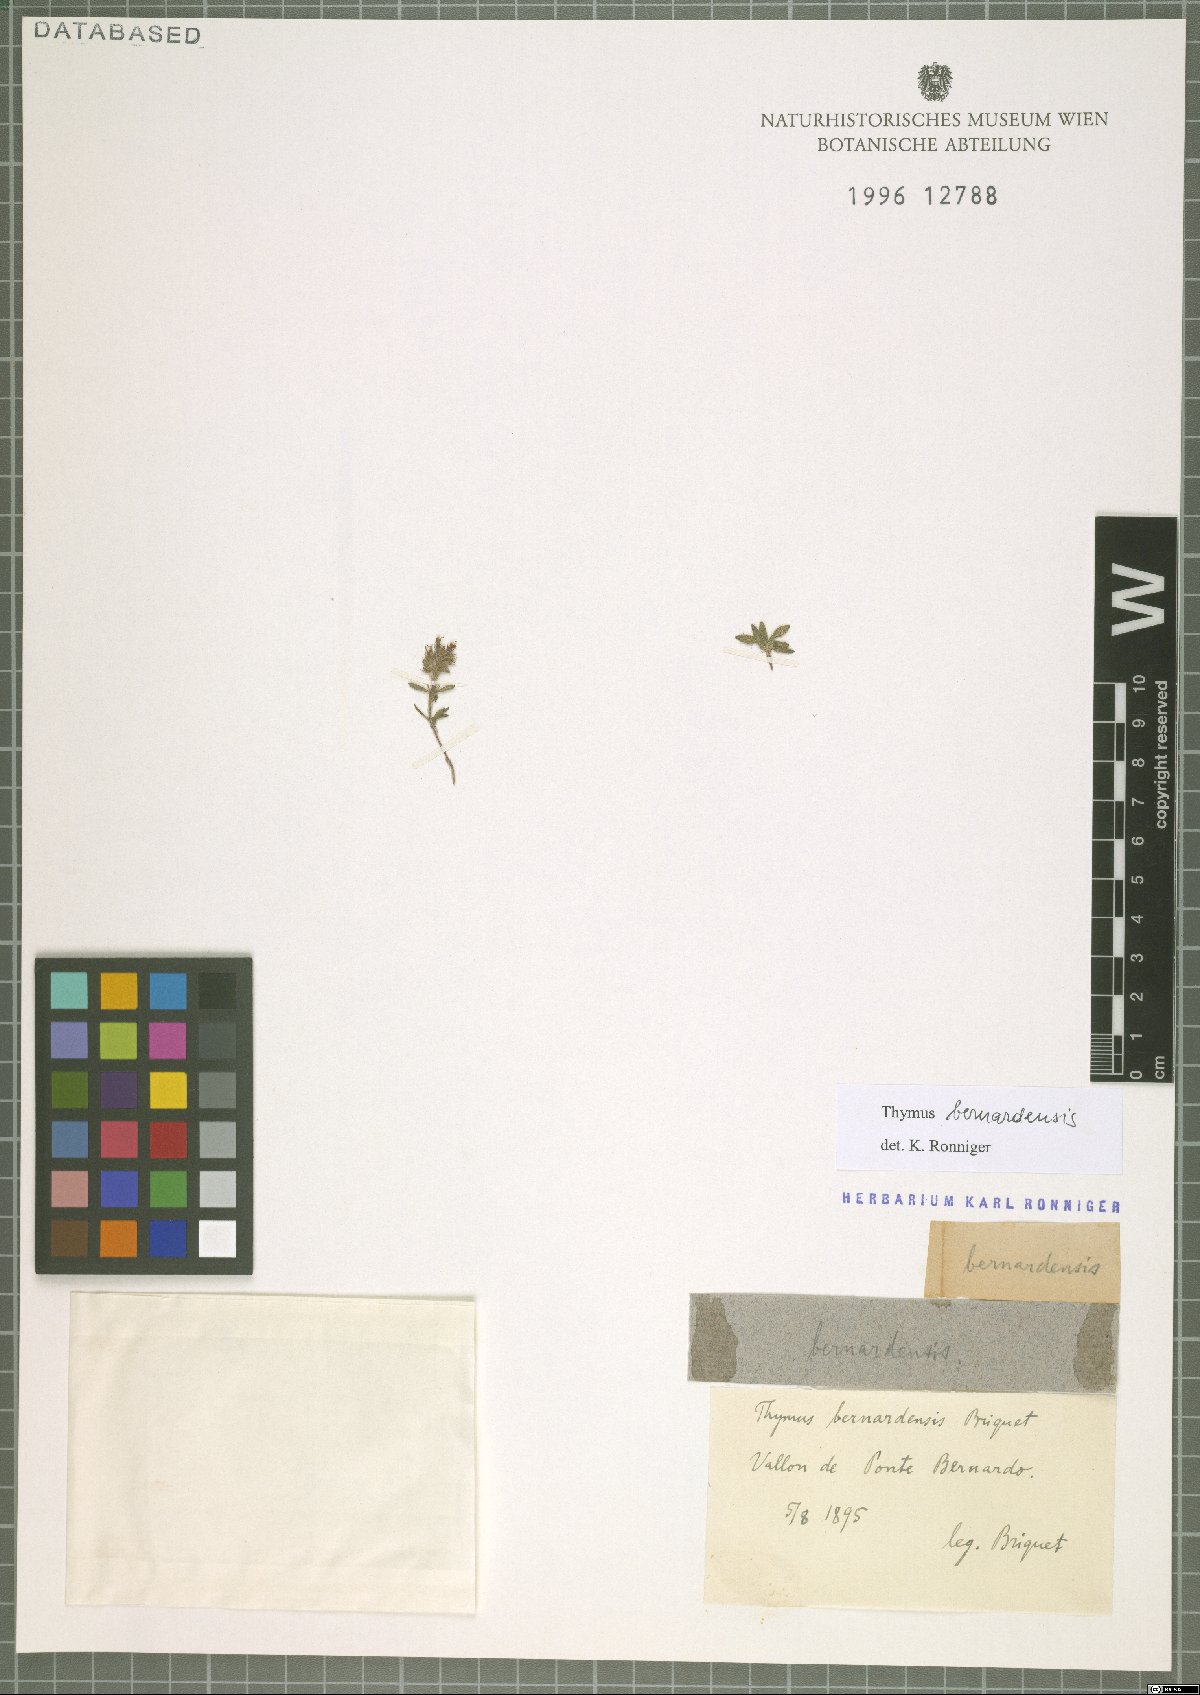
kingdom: Plantae
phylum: Tracheophyta
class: Magnoliopsida
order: Lamiales
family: Lamiaceae
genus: Thymus
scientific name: Thymus
